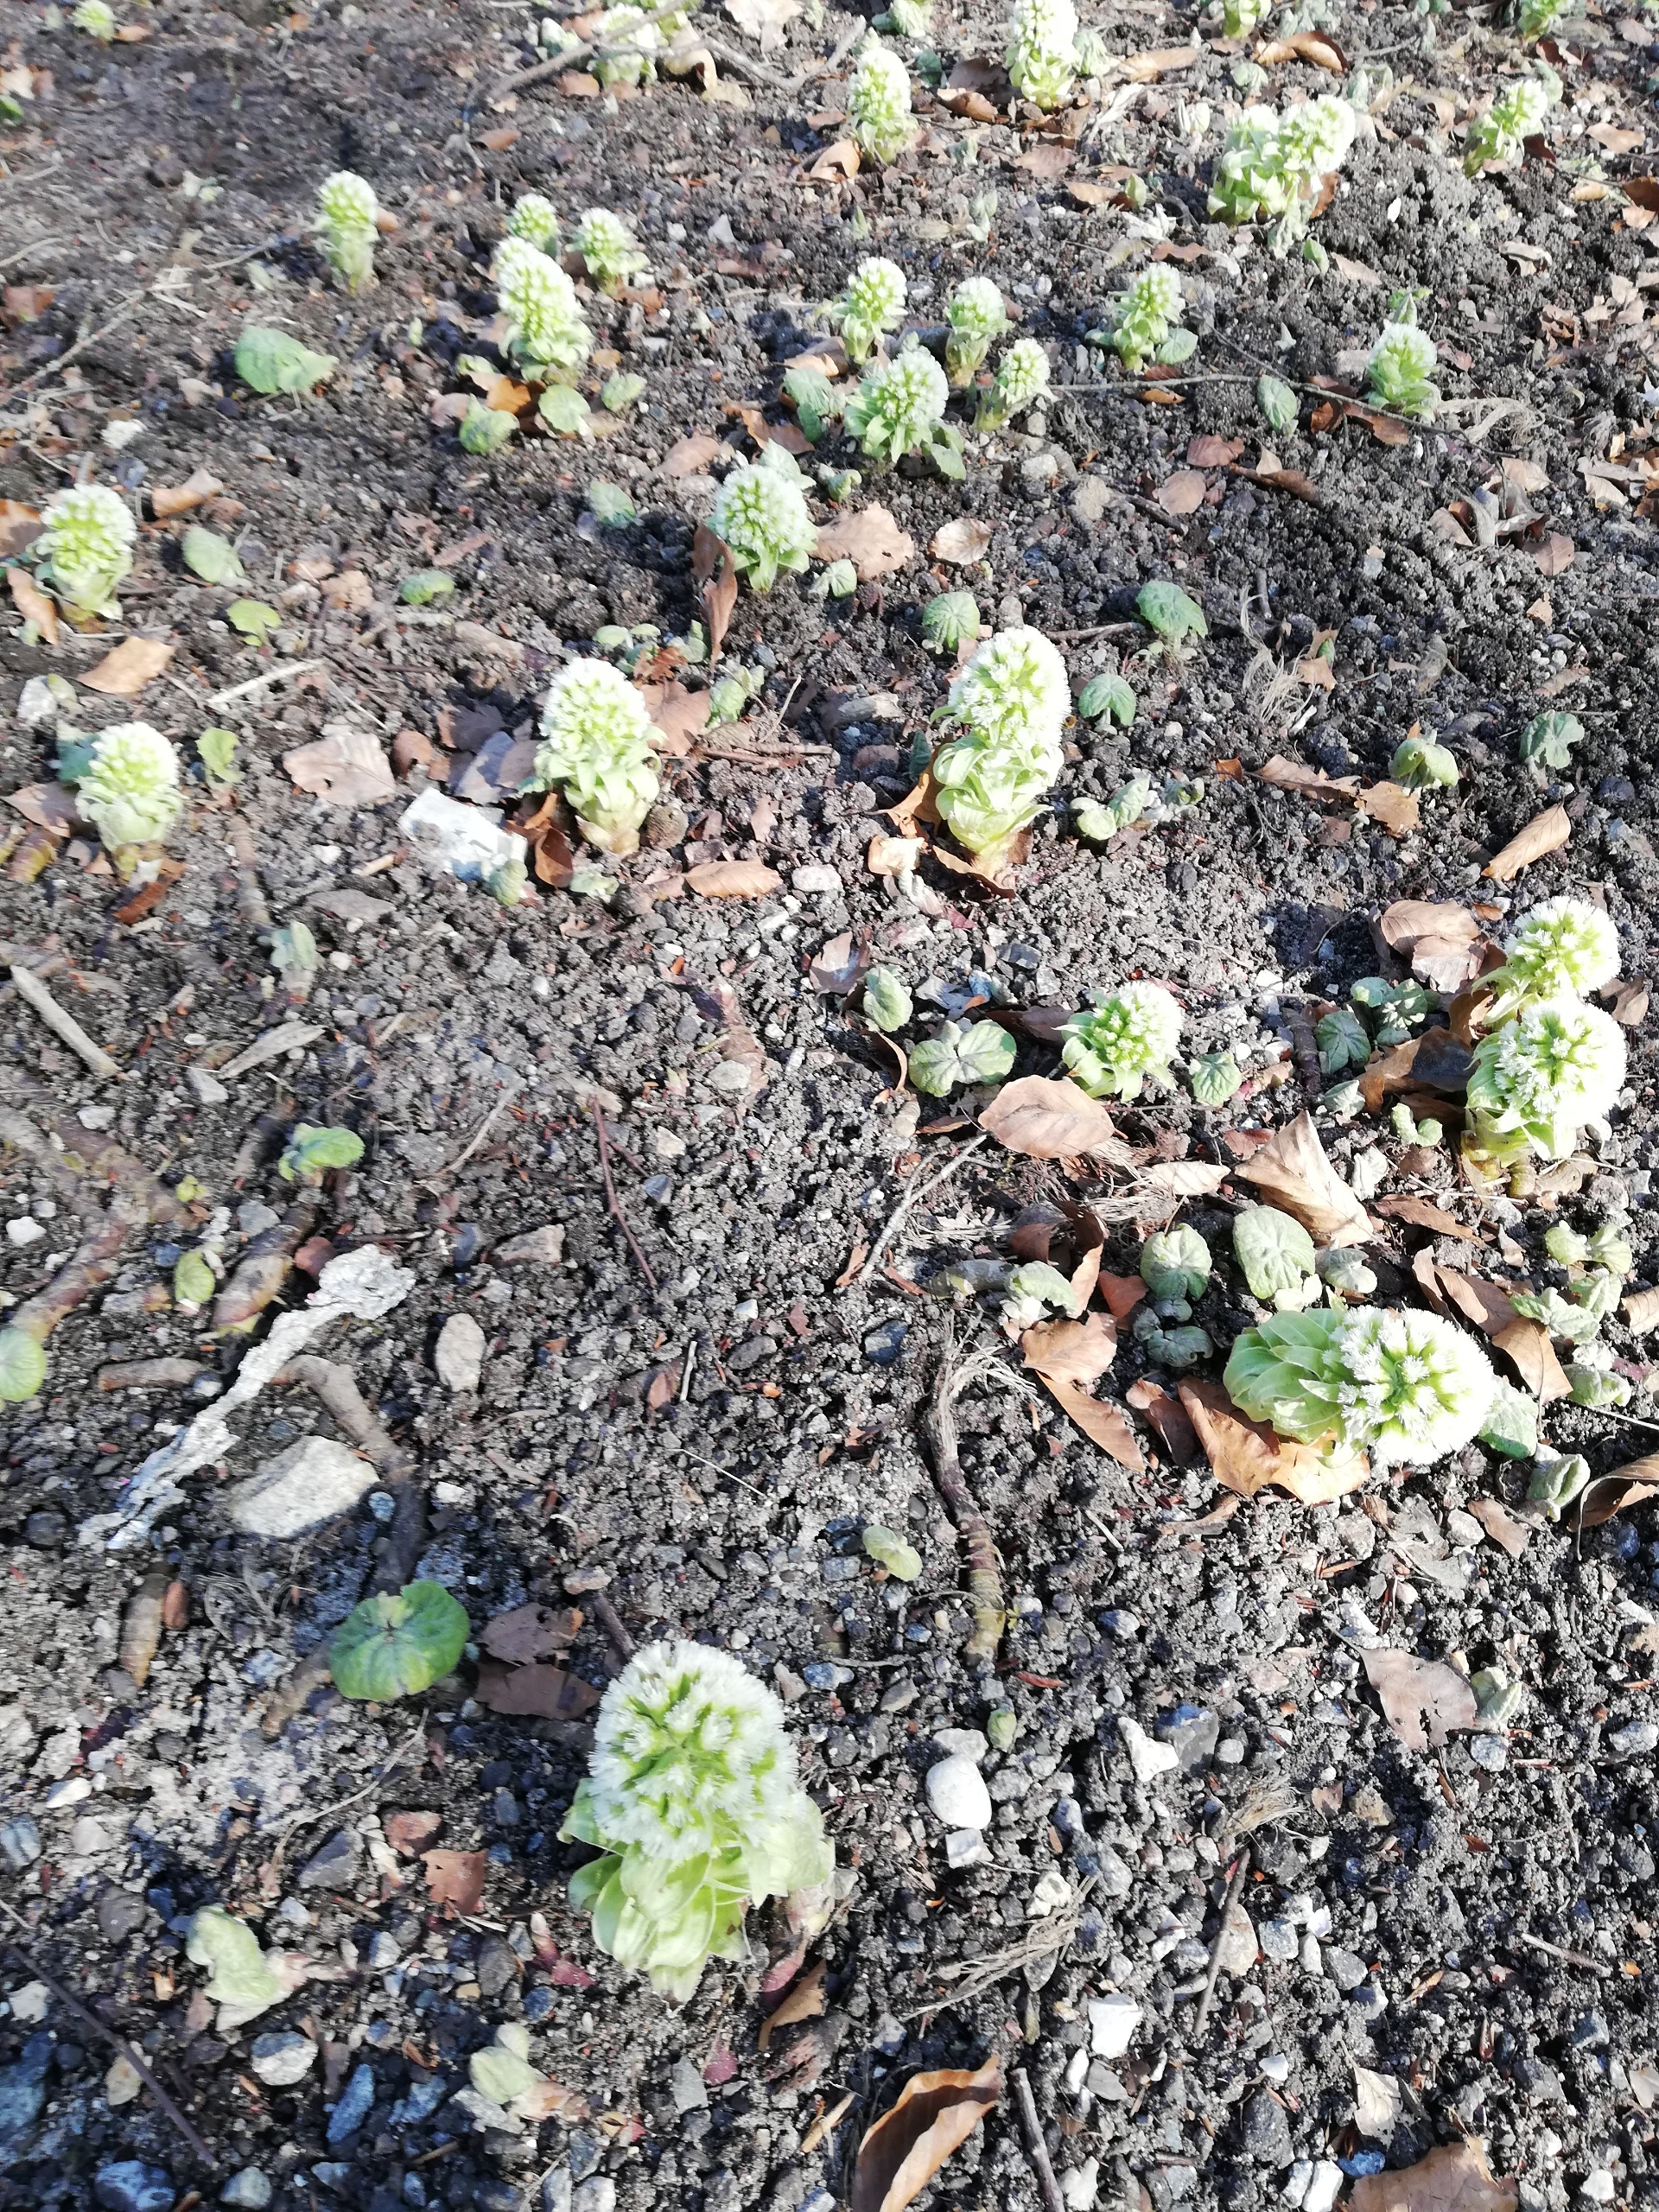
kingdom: Plantae
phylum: Tracheophyta
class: Magnoliopsida
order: Asterales
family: Asteraceae
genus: Petasites
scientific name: Petasites albus
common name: Hvid hestehov
